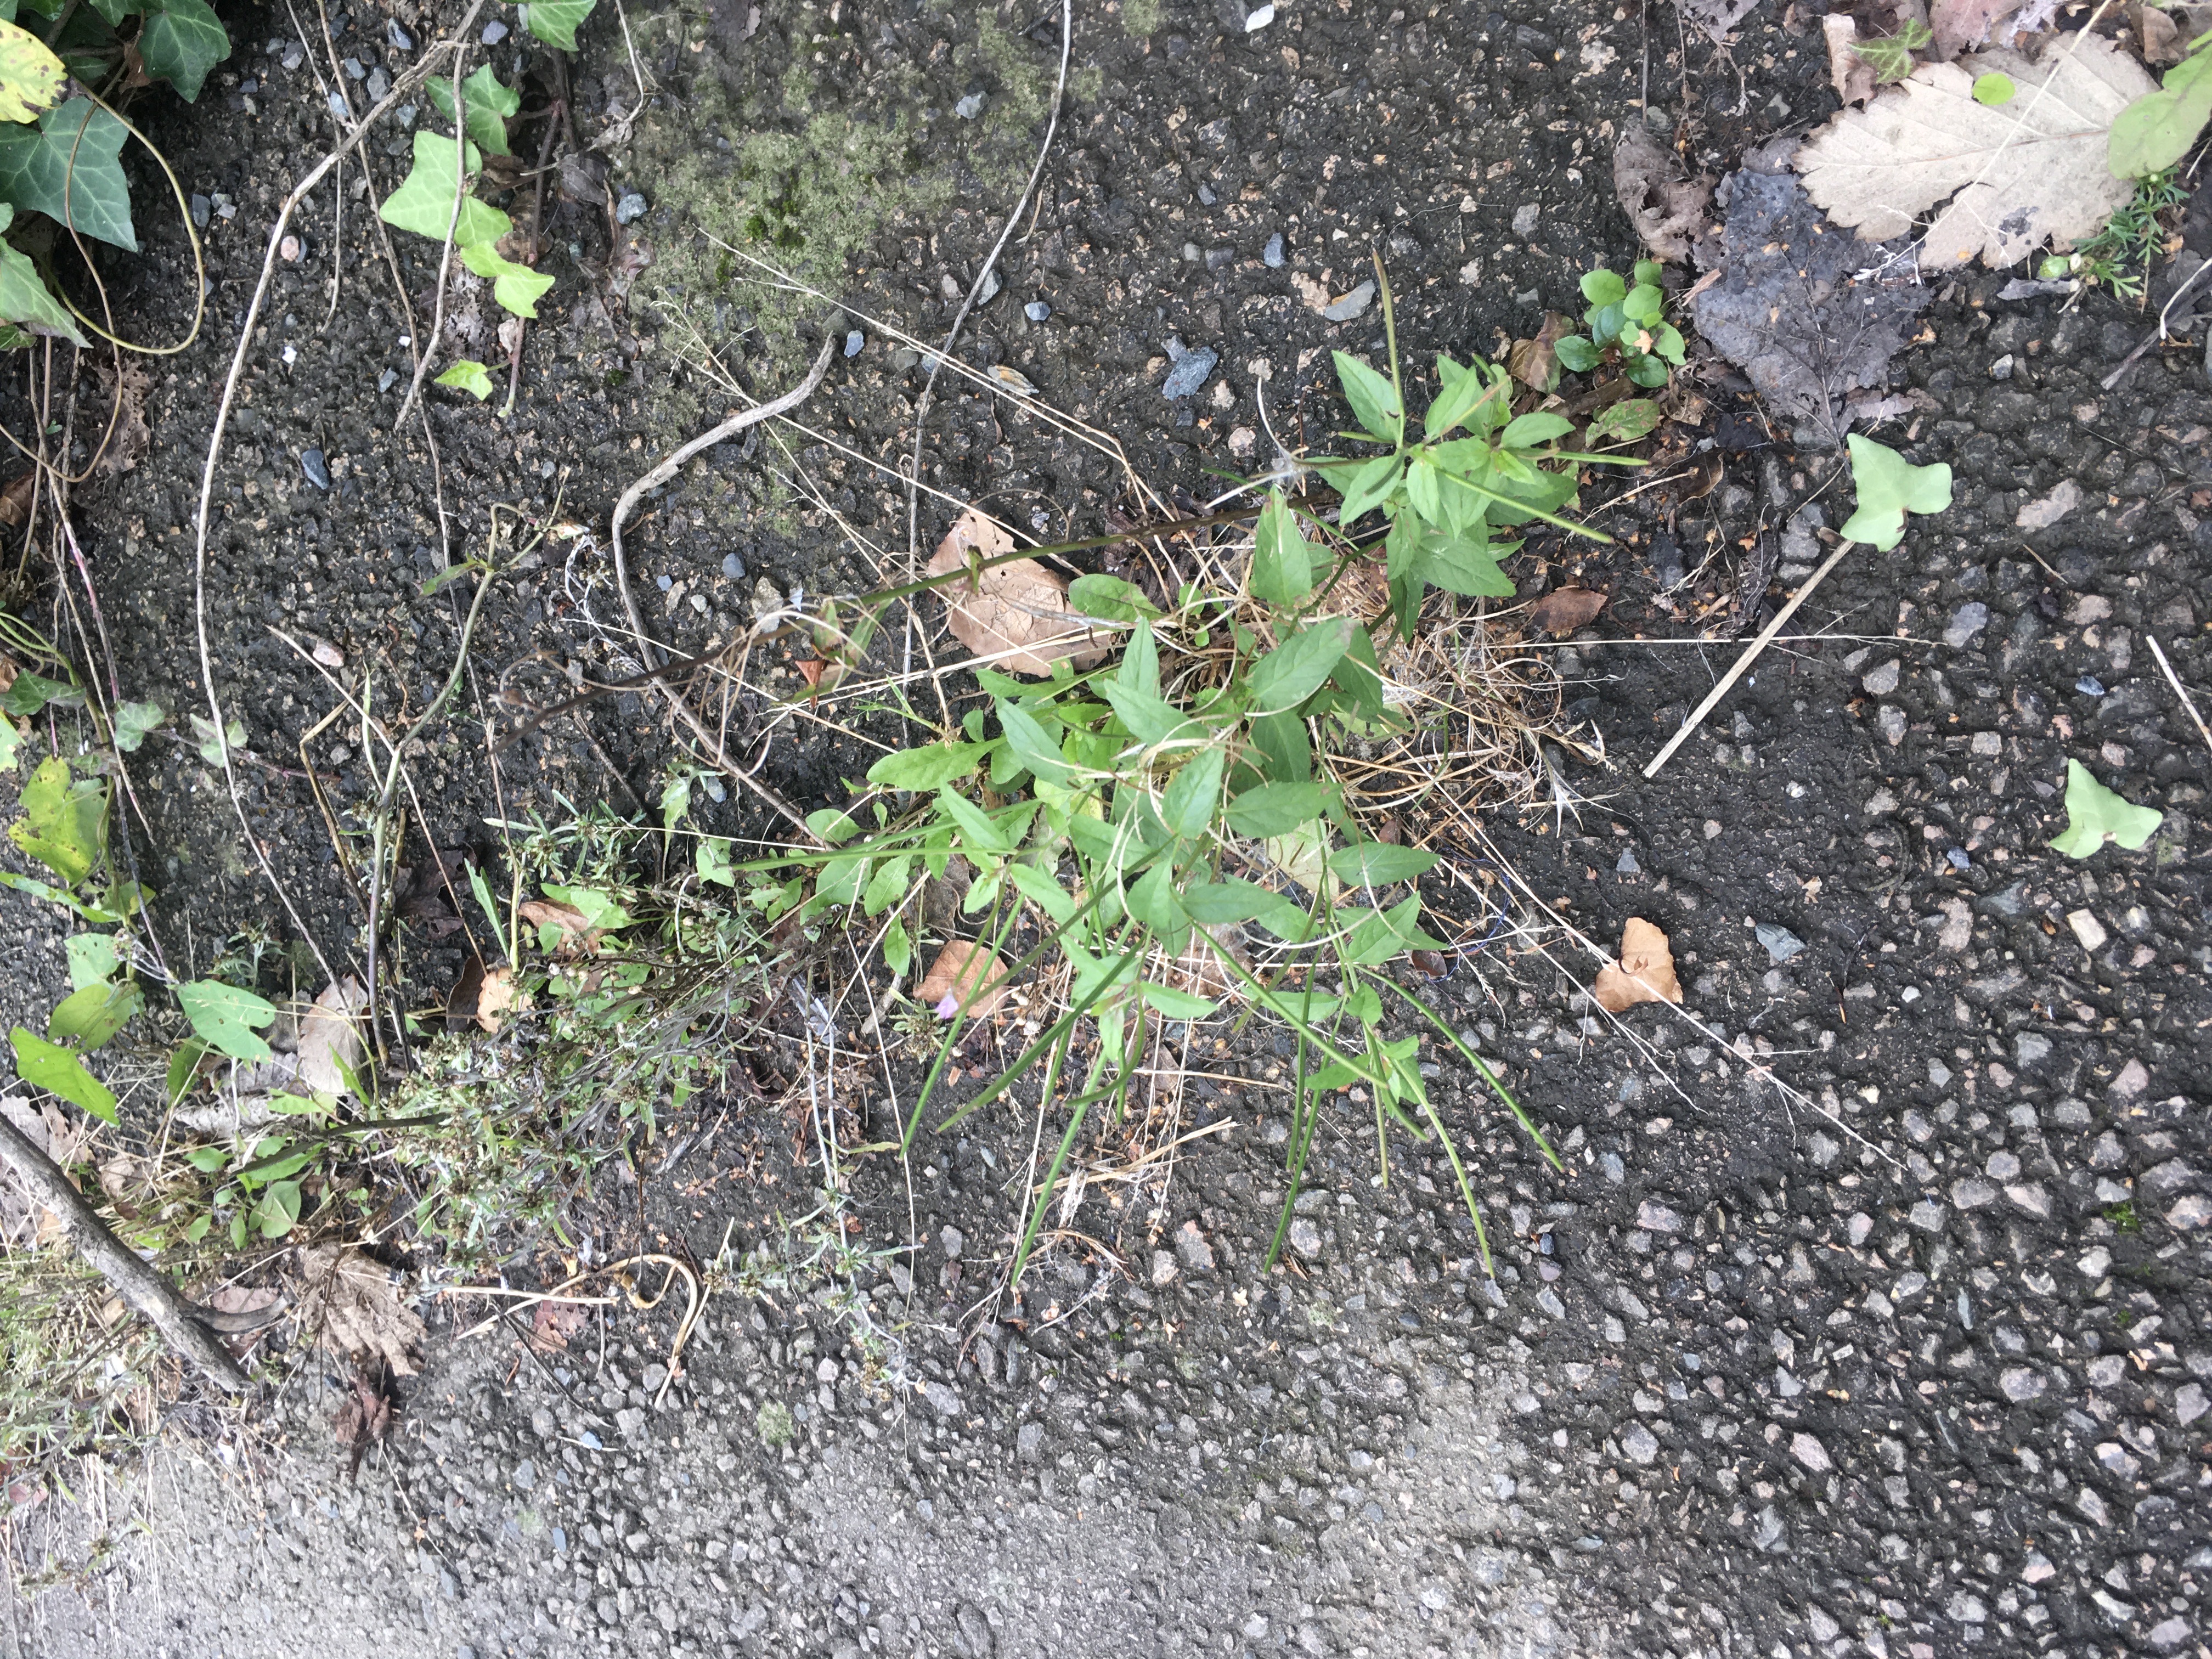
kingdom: Plantae
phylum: Tracheophyta
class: Magnoliopsida
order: Myrtales
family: Onagraceae
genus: Epilobium
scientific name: Epilobium ciliatum
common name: amerikamjølke
